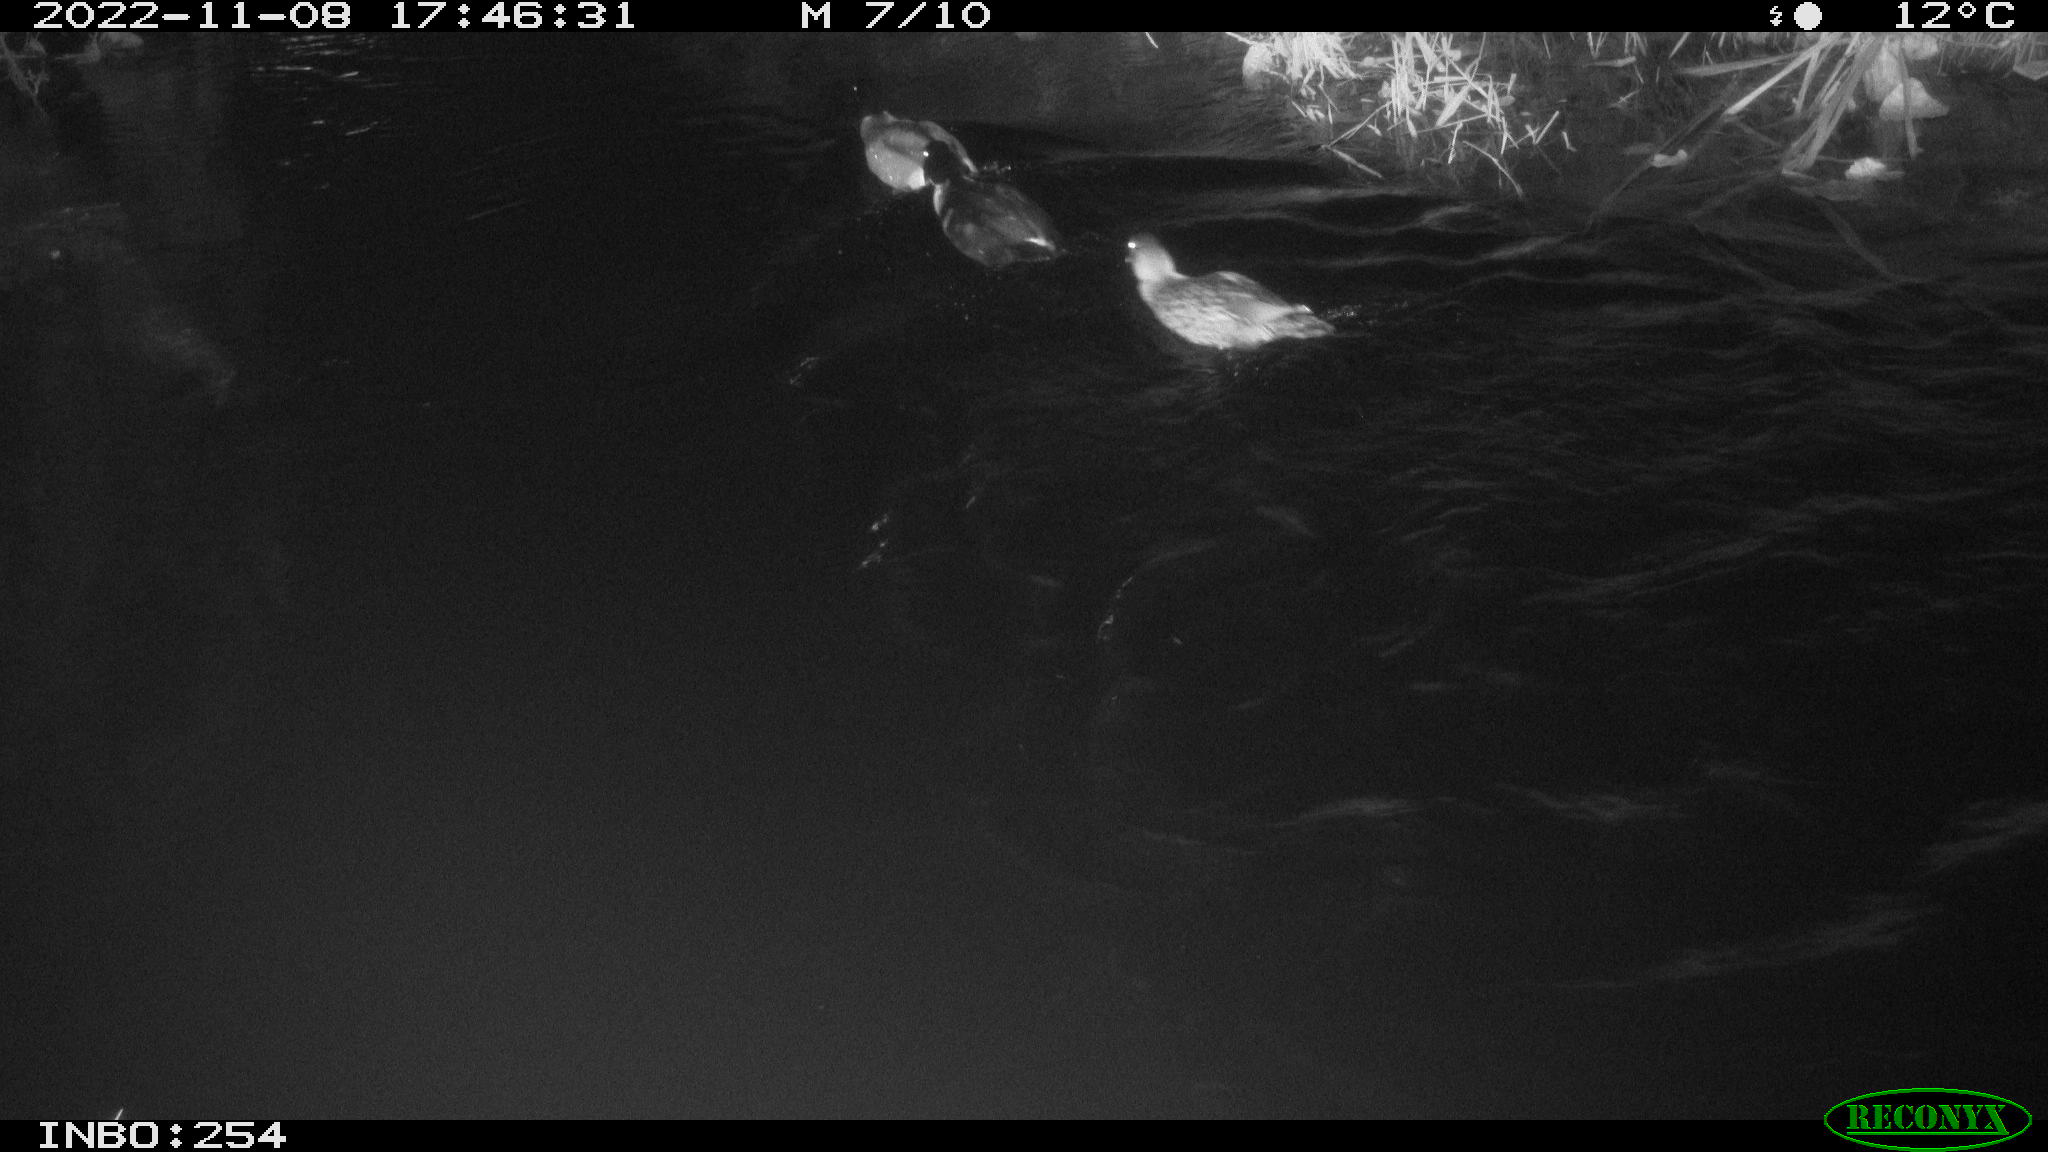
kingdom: Animalia
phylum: Chordata
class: Aves
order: Anseriformes
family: Anatidae
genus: Anas
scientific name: Anas
